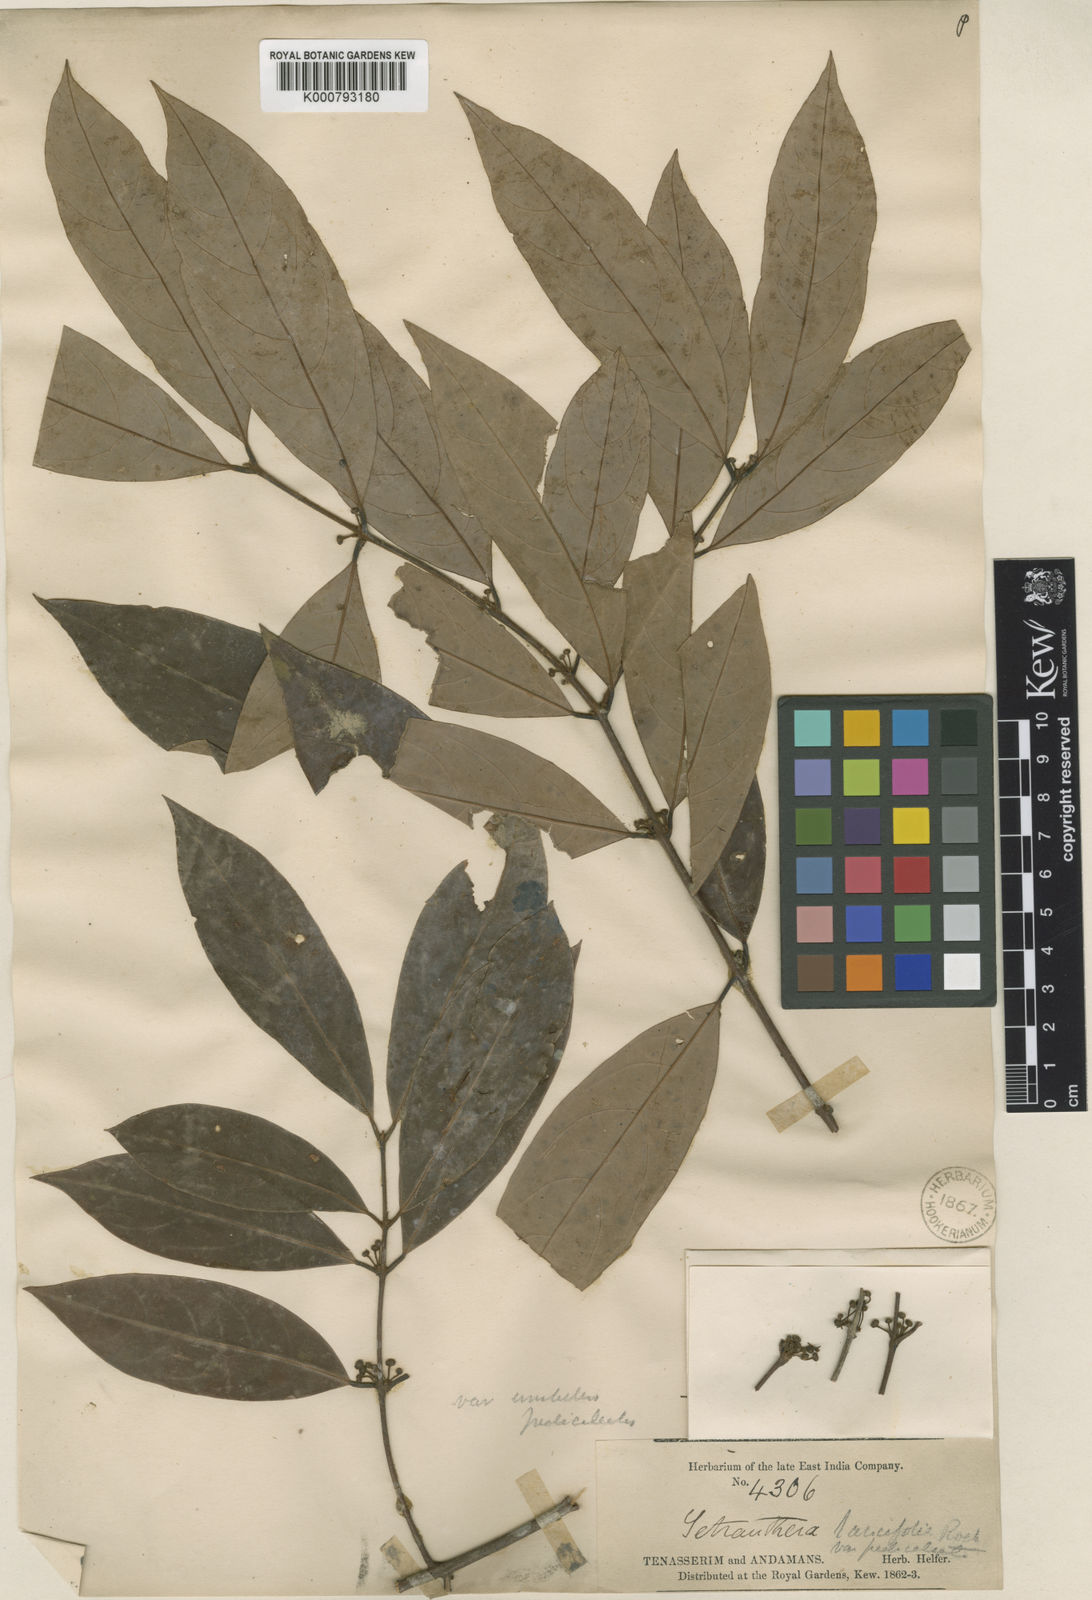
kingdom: Plantae
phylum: Tracheophyta
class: Magnoliopsida
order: Laurales
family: Lauraceae
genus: Litsea
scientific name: Litsea
